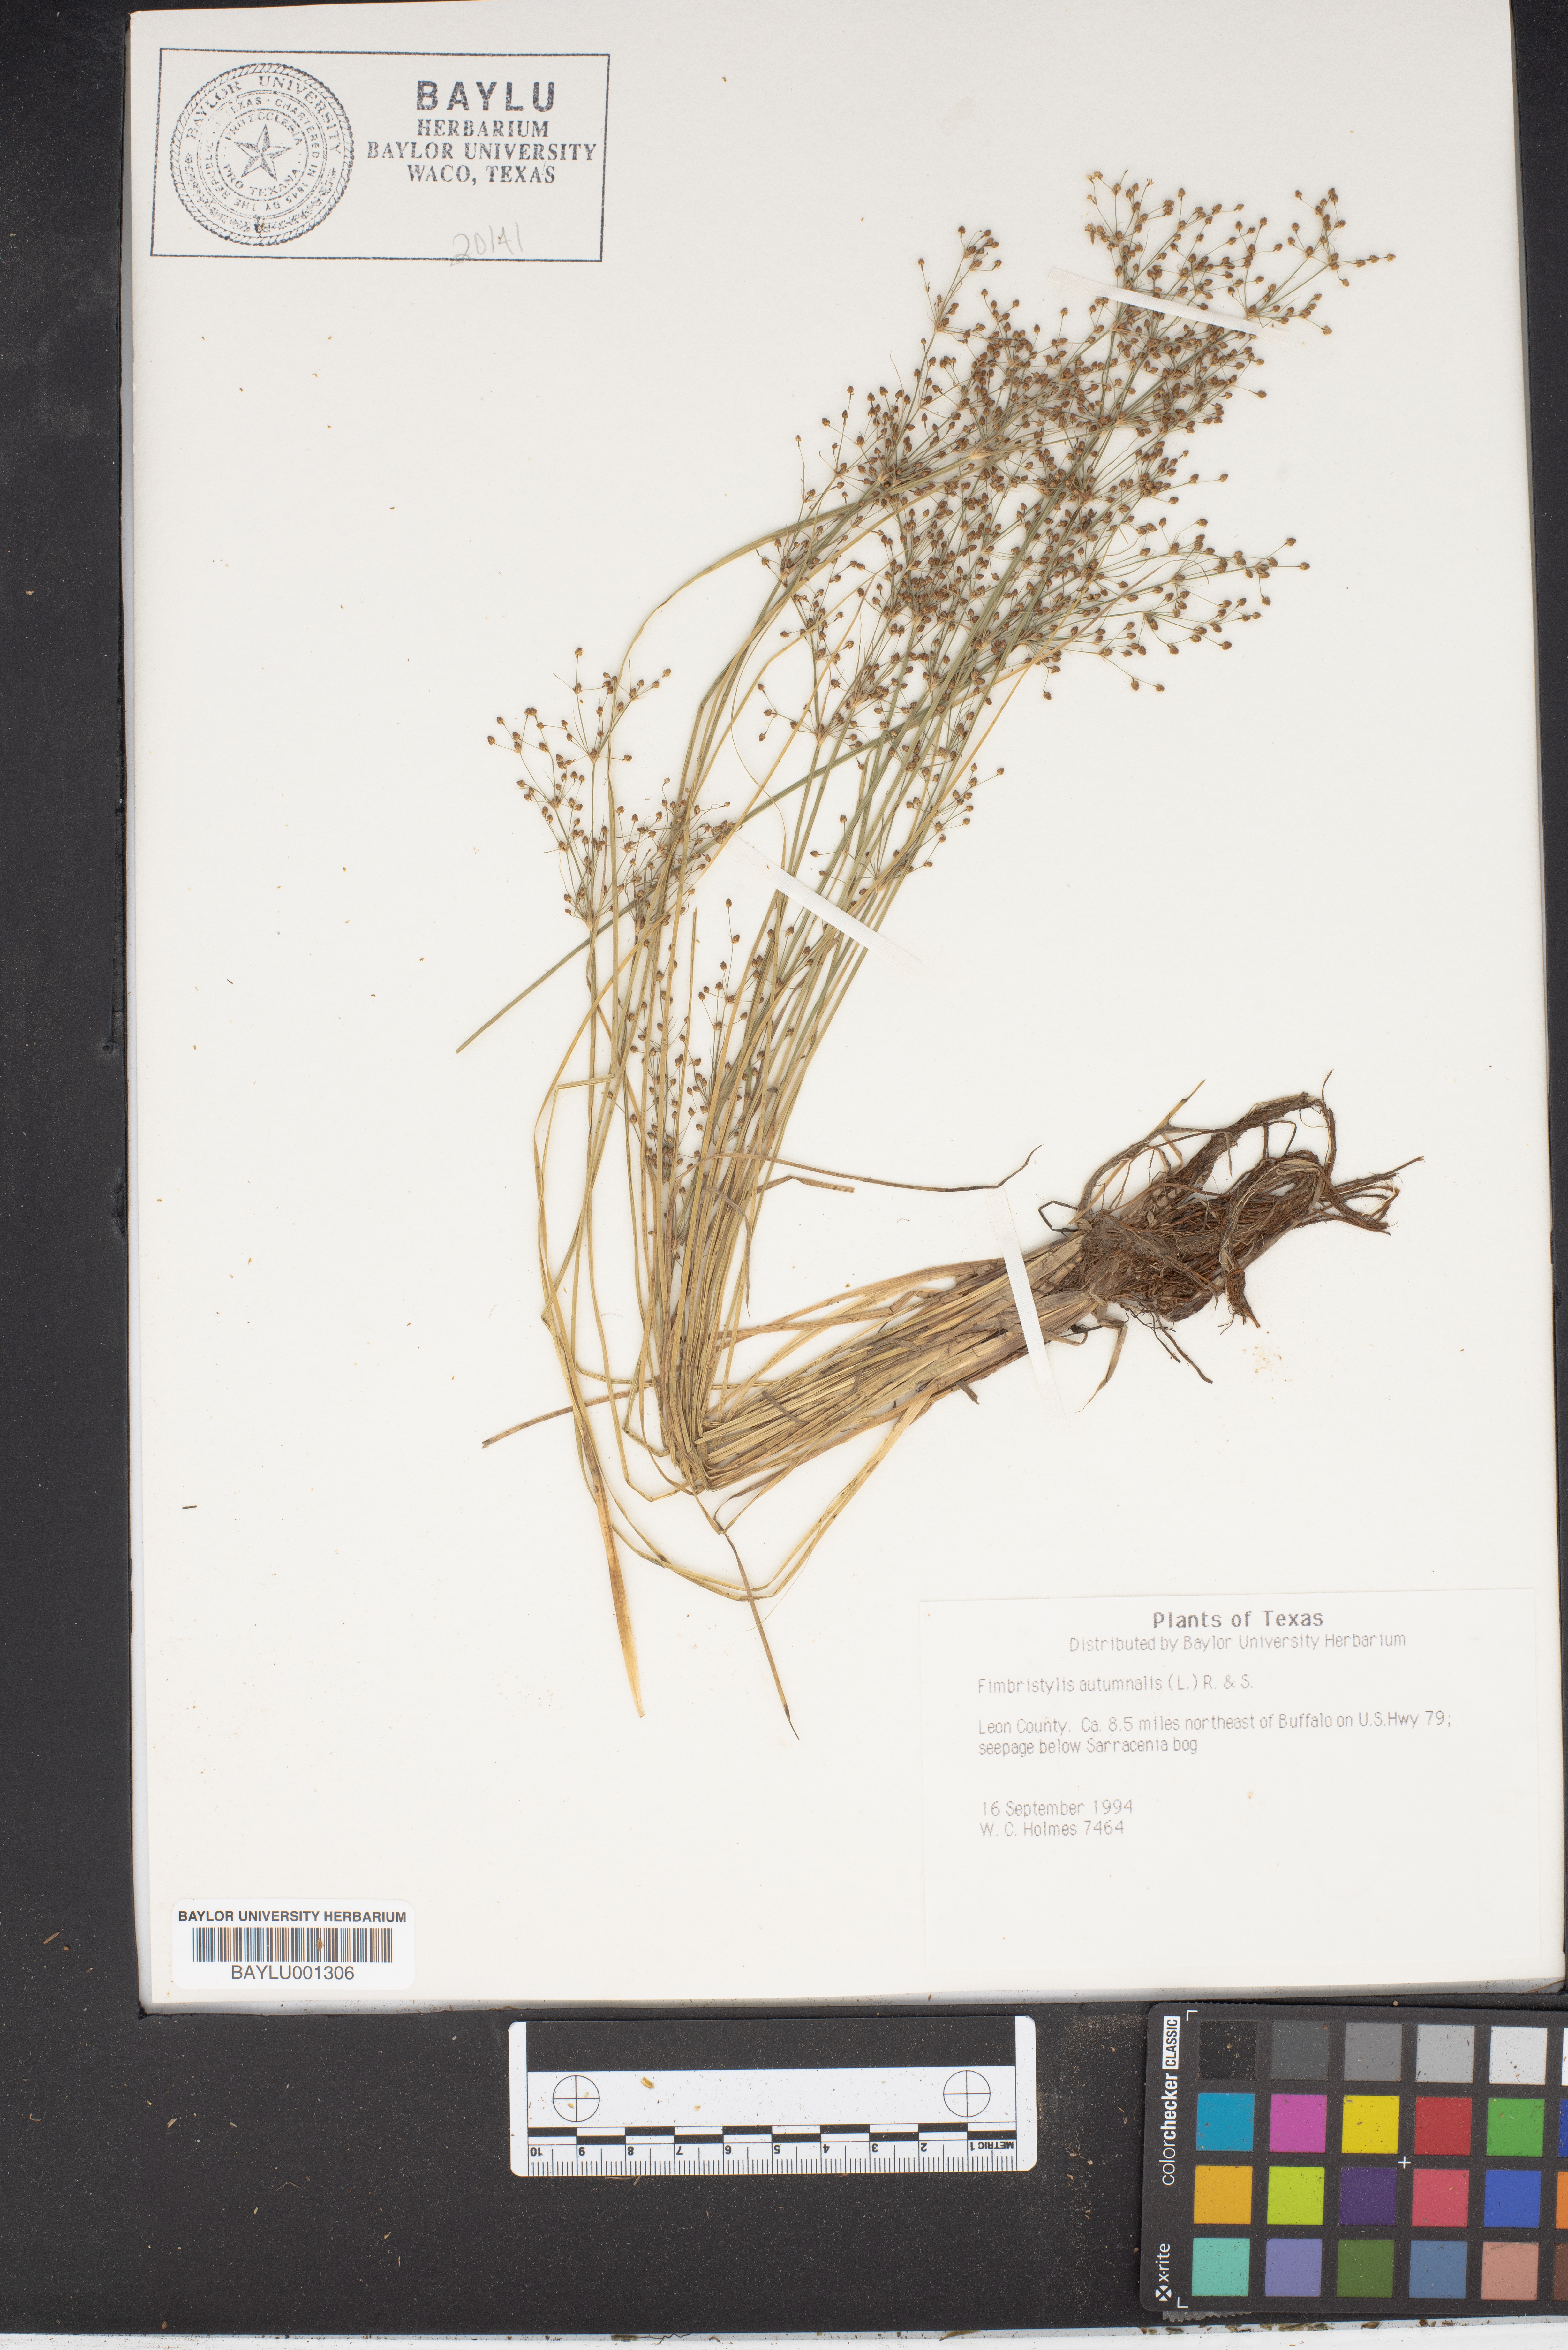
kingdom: Plantae
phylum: Tracheophyta
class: Liliopsida
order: Poales
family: Cyperaceae
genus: Fimbristylis
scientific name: Fimbristylis autumnalis
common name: Slender fimbristylis
